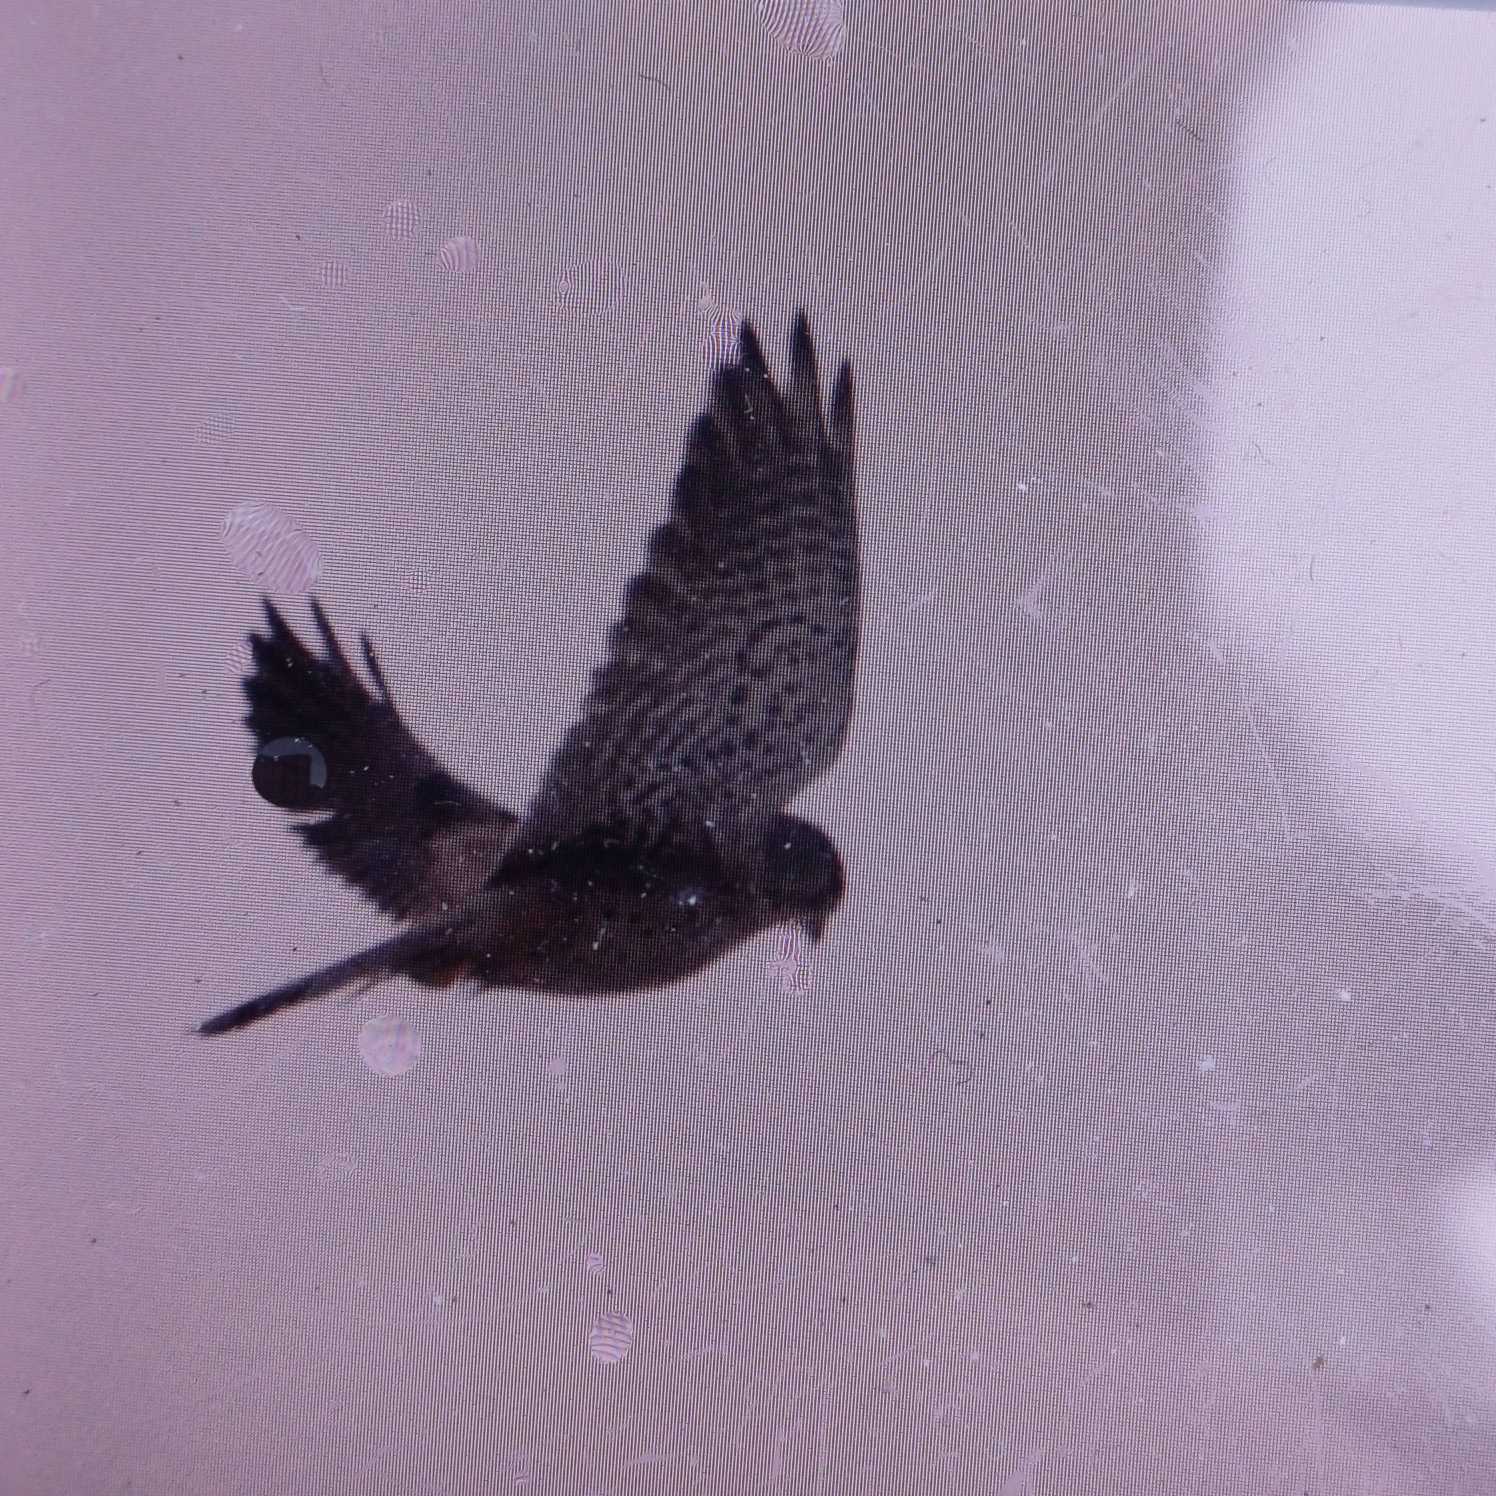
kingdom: Animalia
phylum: Chordata
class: Aves
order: Falconiformes
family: Falconidae
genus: Falco
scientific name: Falco tinnunculus
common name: Tårnfalk
